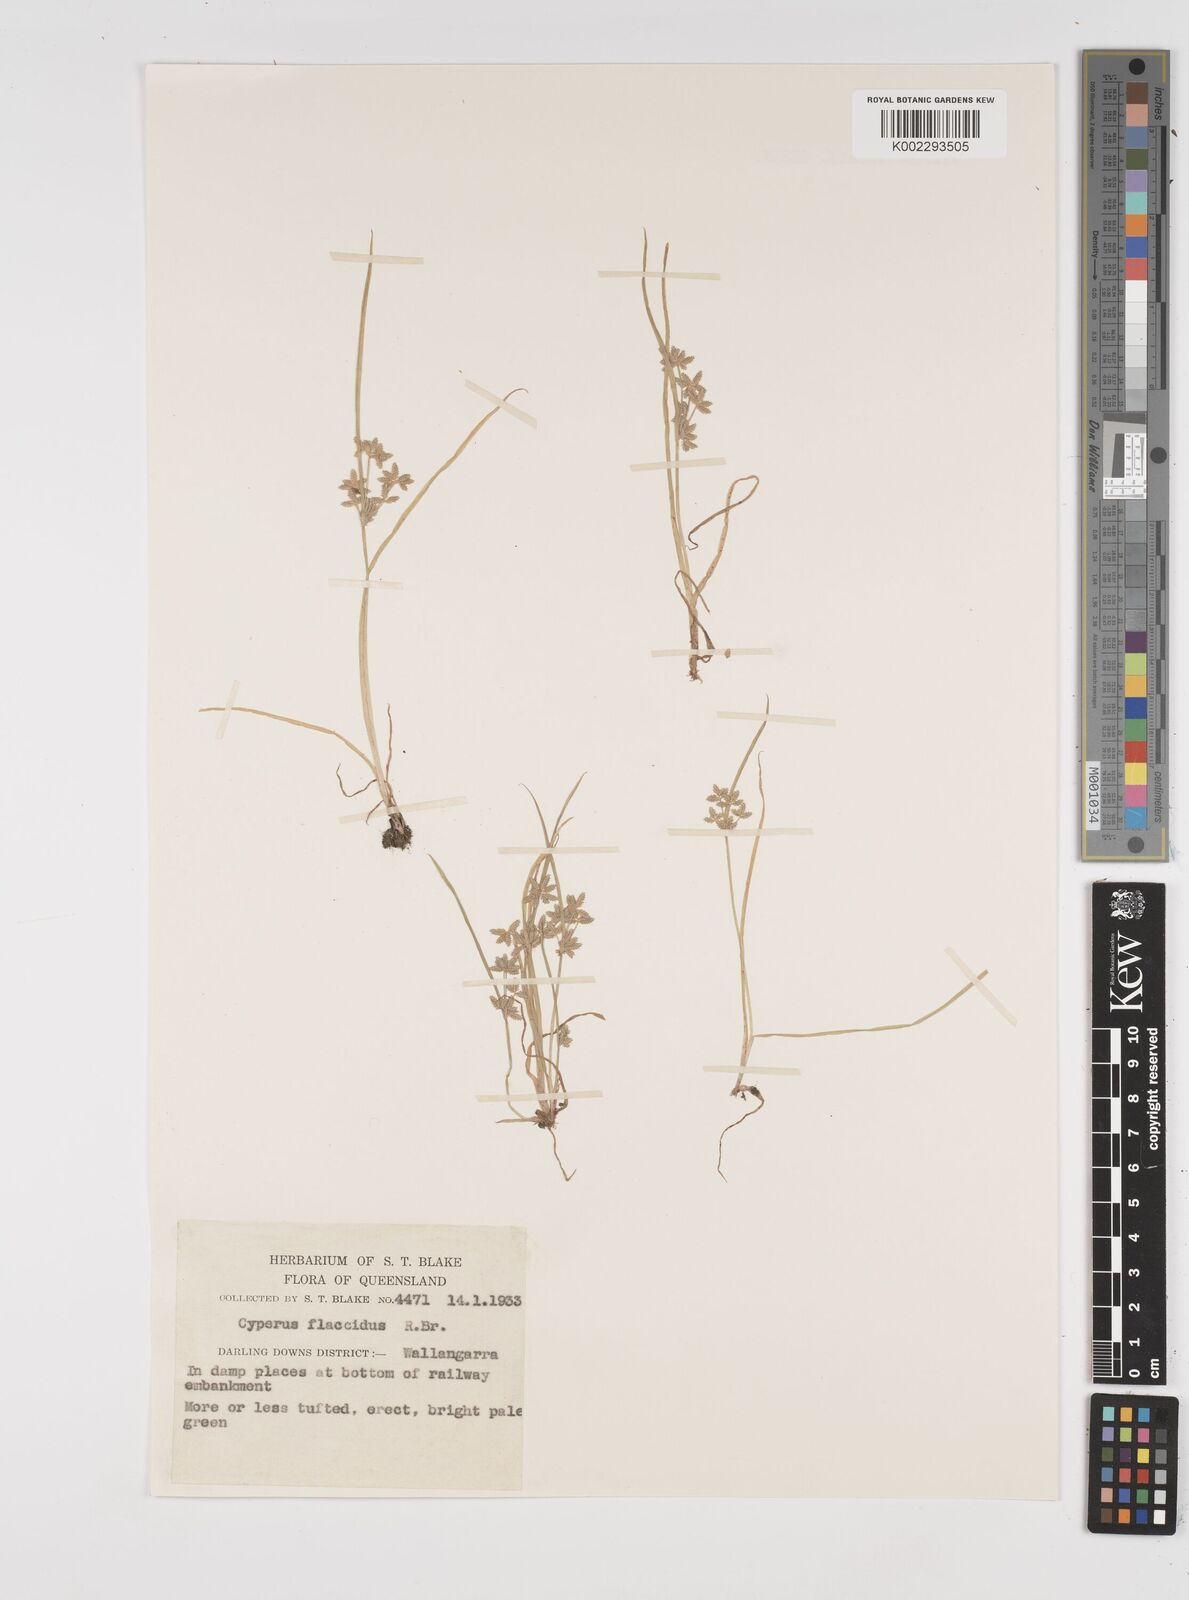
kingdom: Plantae
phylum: Tracheophyta
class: Liliopsida
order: Poales
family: Cyperaceae
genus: Cyperus
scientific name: Cyperus flaccidus
